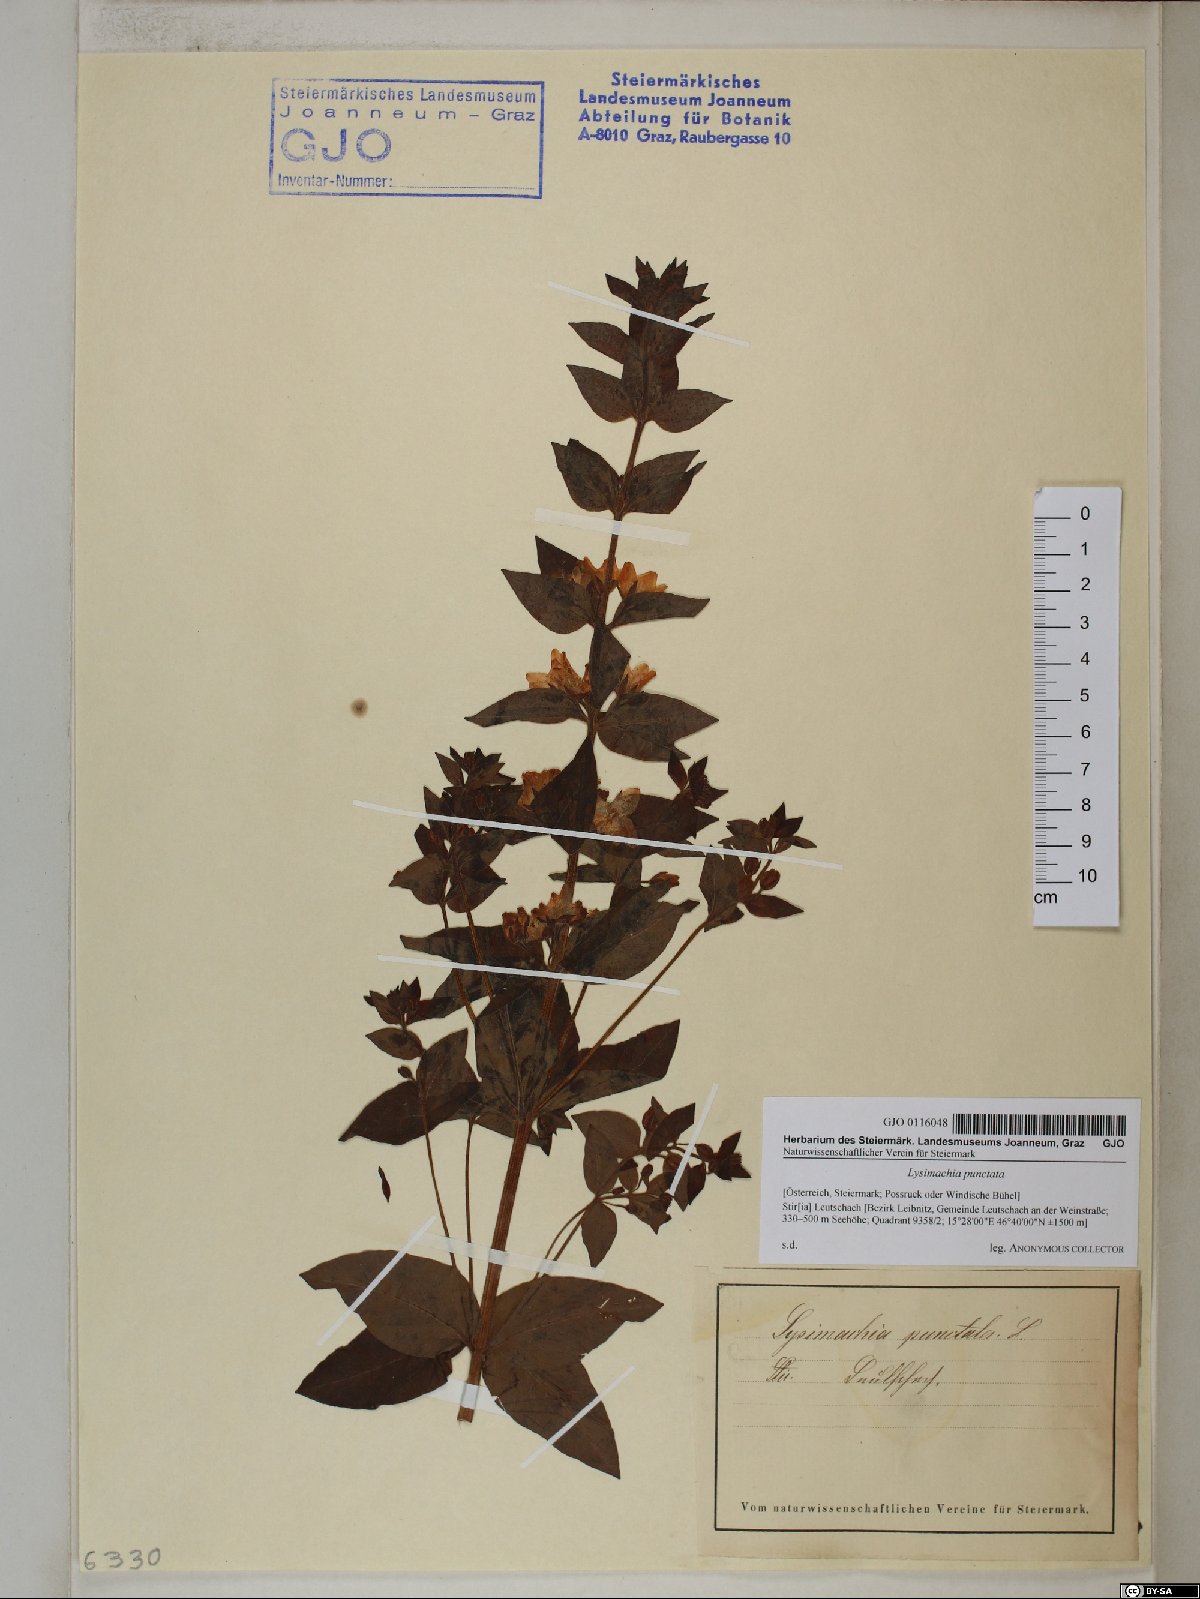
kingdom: Plantae
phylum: Tracheophyta
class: Magnoliopsida
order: Ericales
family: Primulaceae
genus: Lysimachia
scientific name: Lysimachia punctata
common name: Dotted loosestrife
